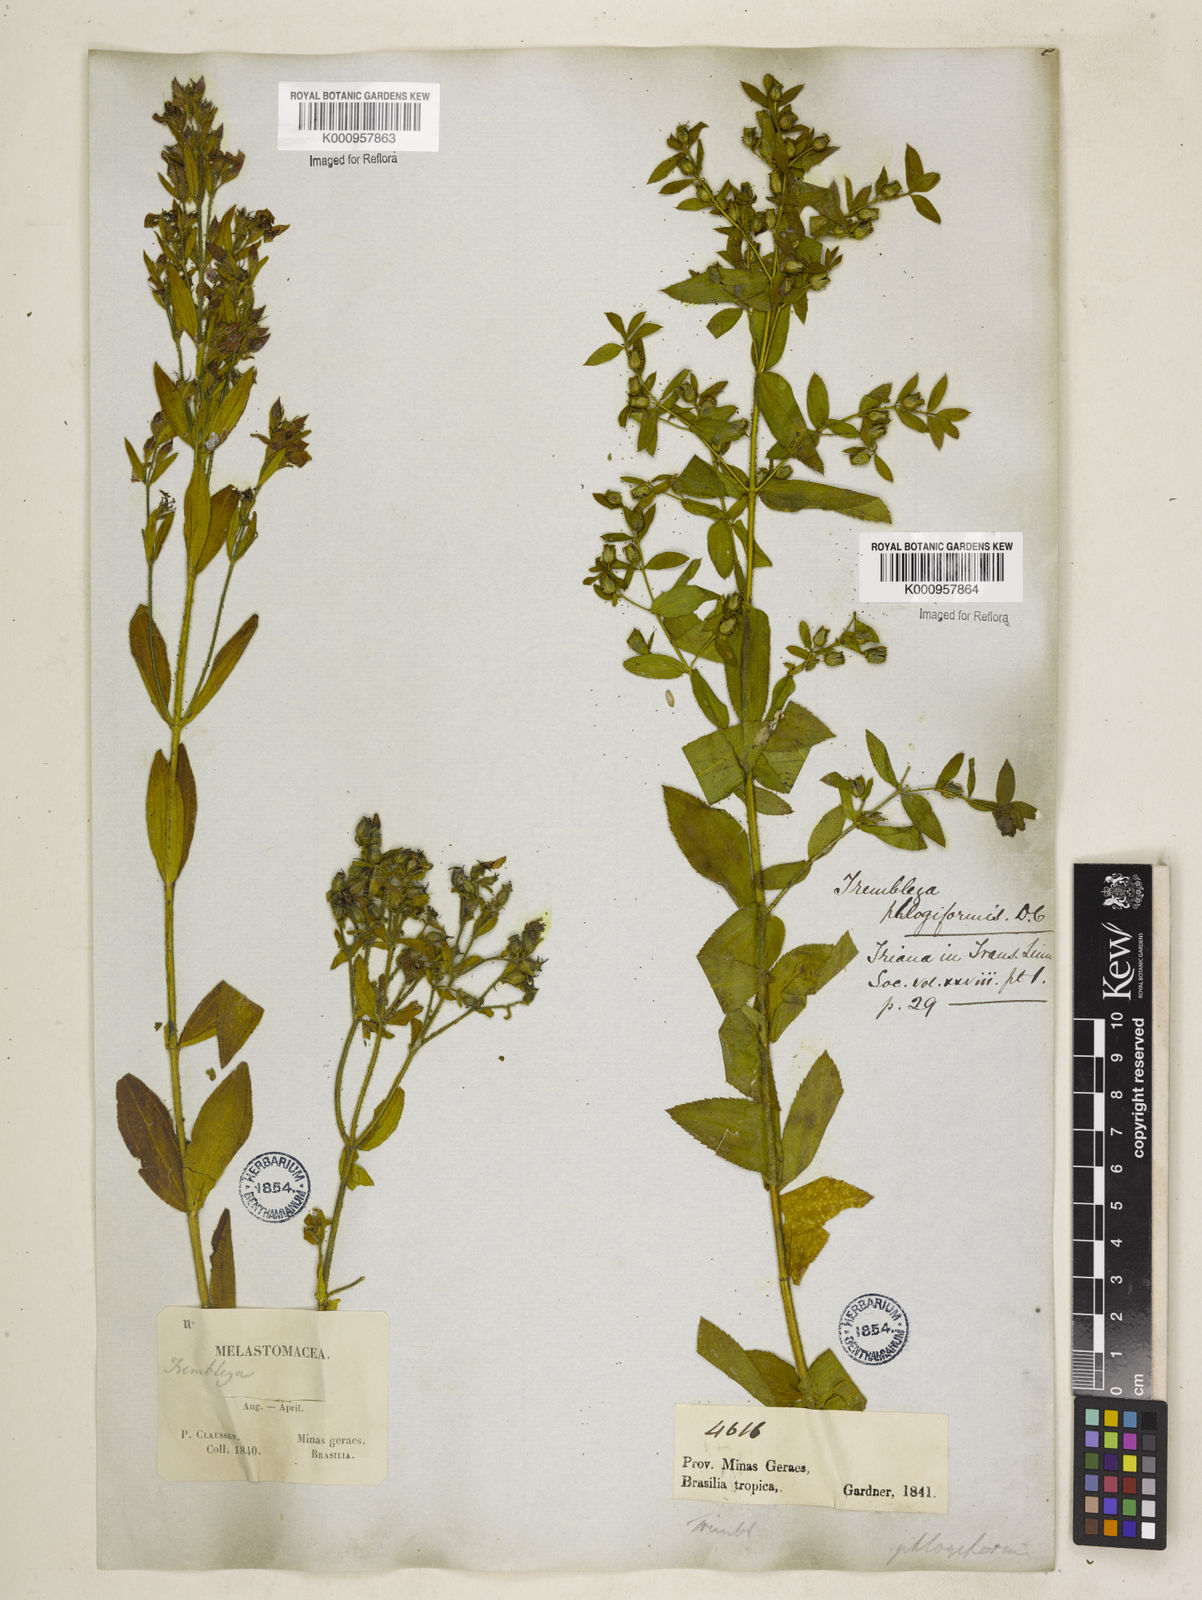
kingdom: Plantae
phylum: Tracheophyta
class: Magnoliopsida
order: Myrtales
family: Melastomataceae
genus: Microlicia
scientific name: Microlicia phlogiformis
